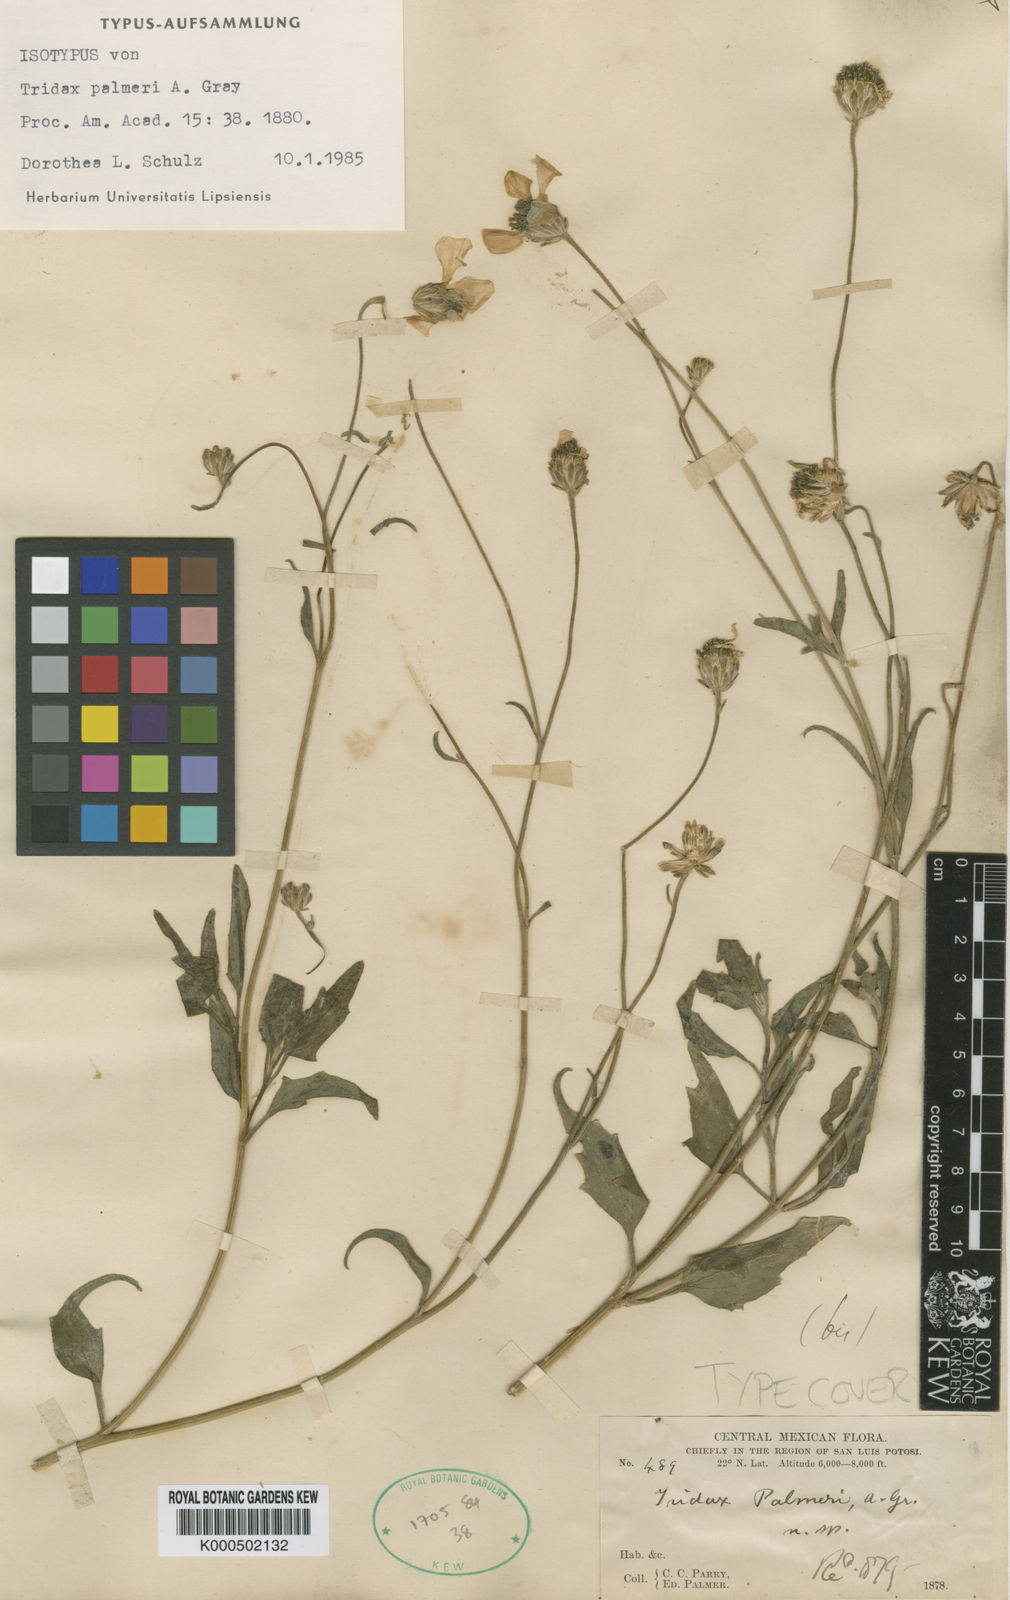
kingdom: Plantae
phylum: Tracheophyta
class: Magnoliopsida
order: Asterales
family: Asteraceae
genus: Tridax
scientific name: Tridax palmeri
